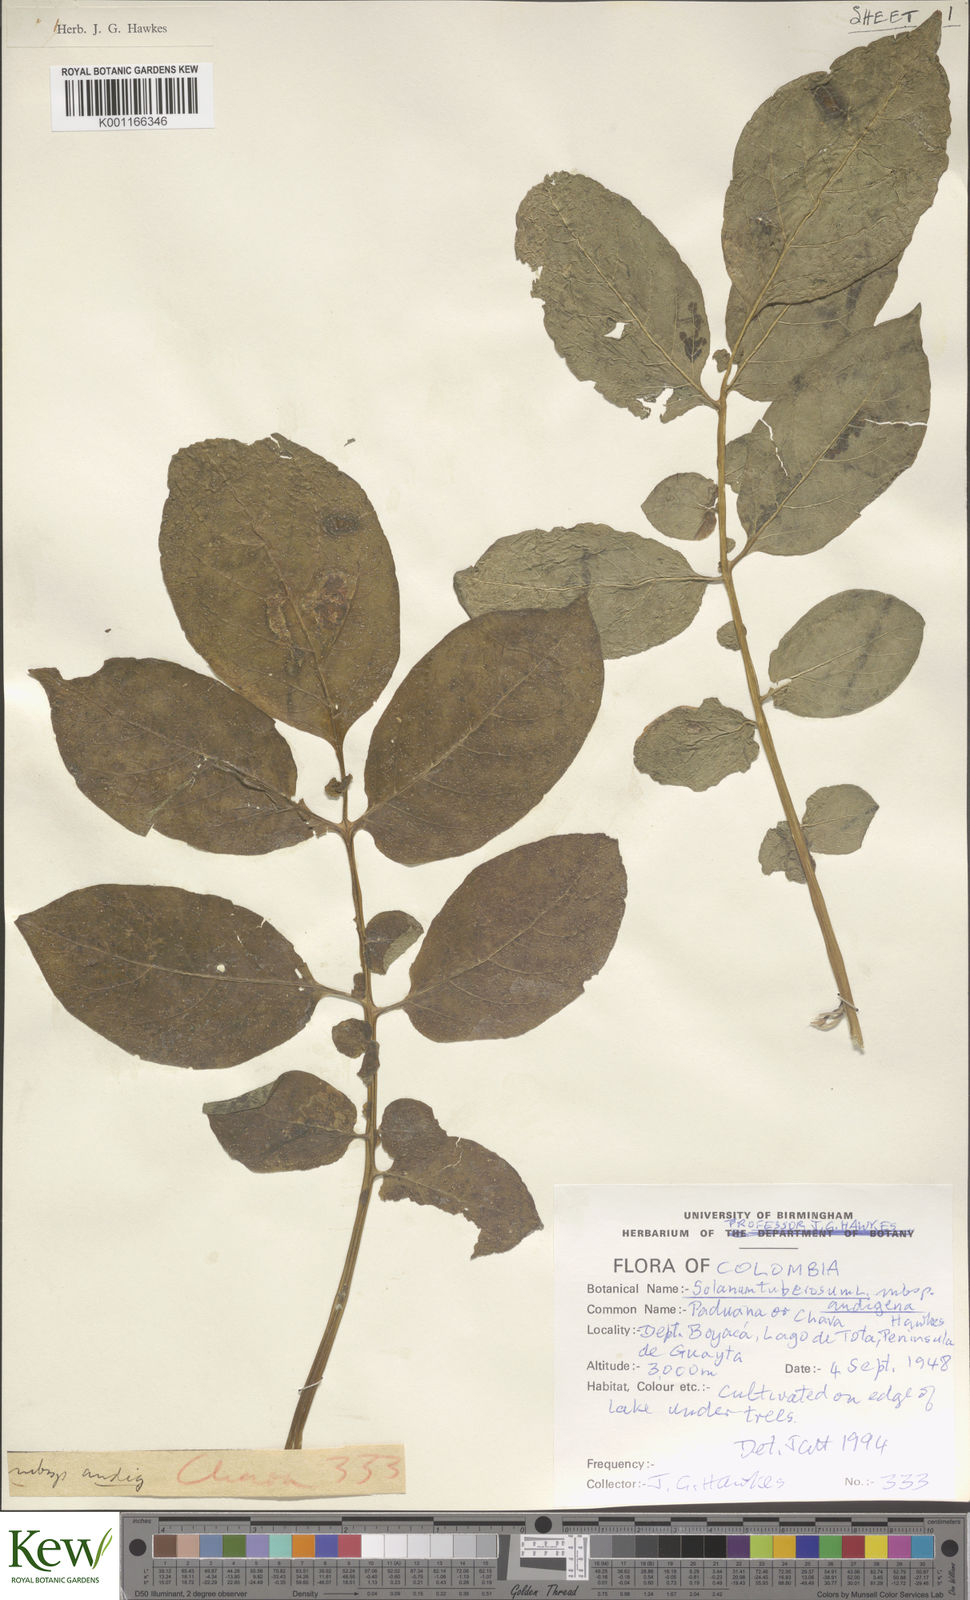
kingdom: Plantae
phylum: Tracheophyta
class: Magnoliopsida
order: Solanales
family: Solanaceae
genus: Solanum
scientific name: Solanum tuberosum
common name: Potato
